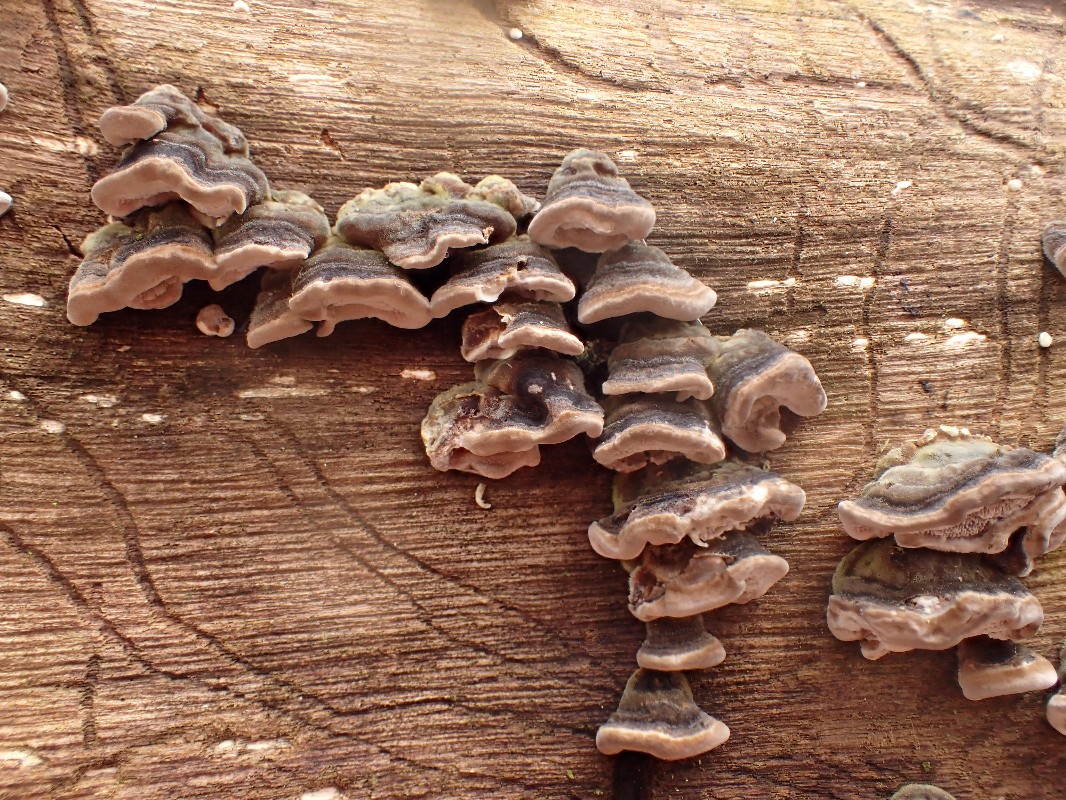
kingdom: Fungi
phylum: Basidiomycota
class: Agaricomycetes
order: Polyporales
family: Polyporaceae
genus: Trametes
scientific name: Trametes versicolor
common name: broget læderporesvamp
